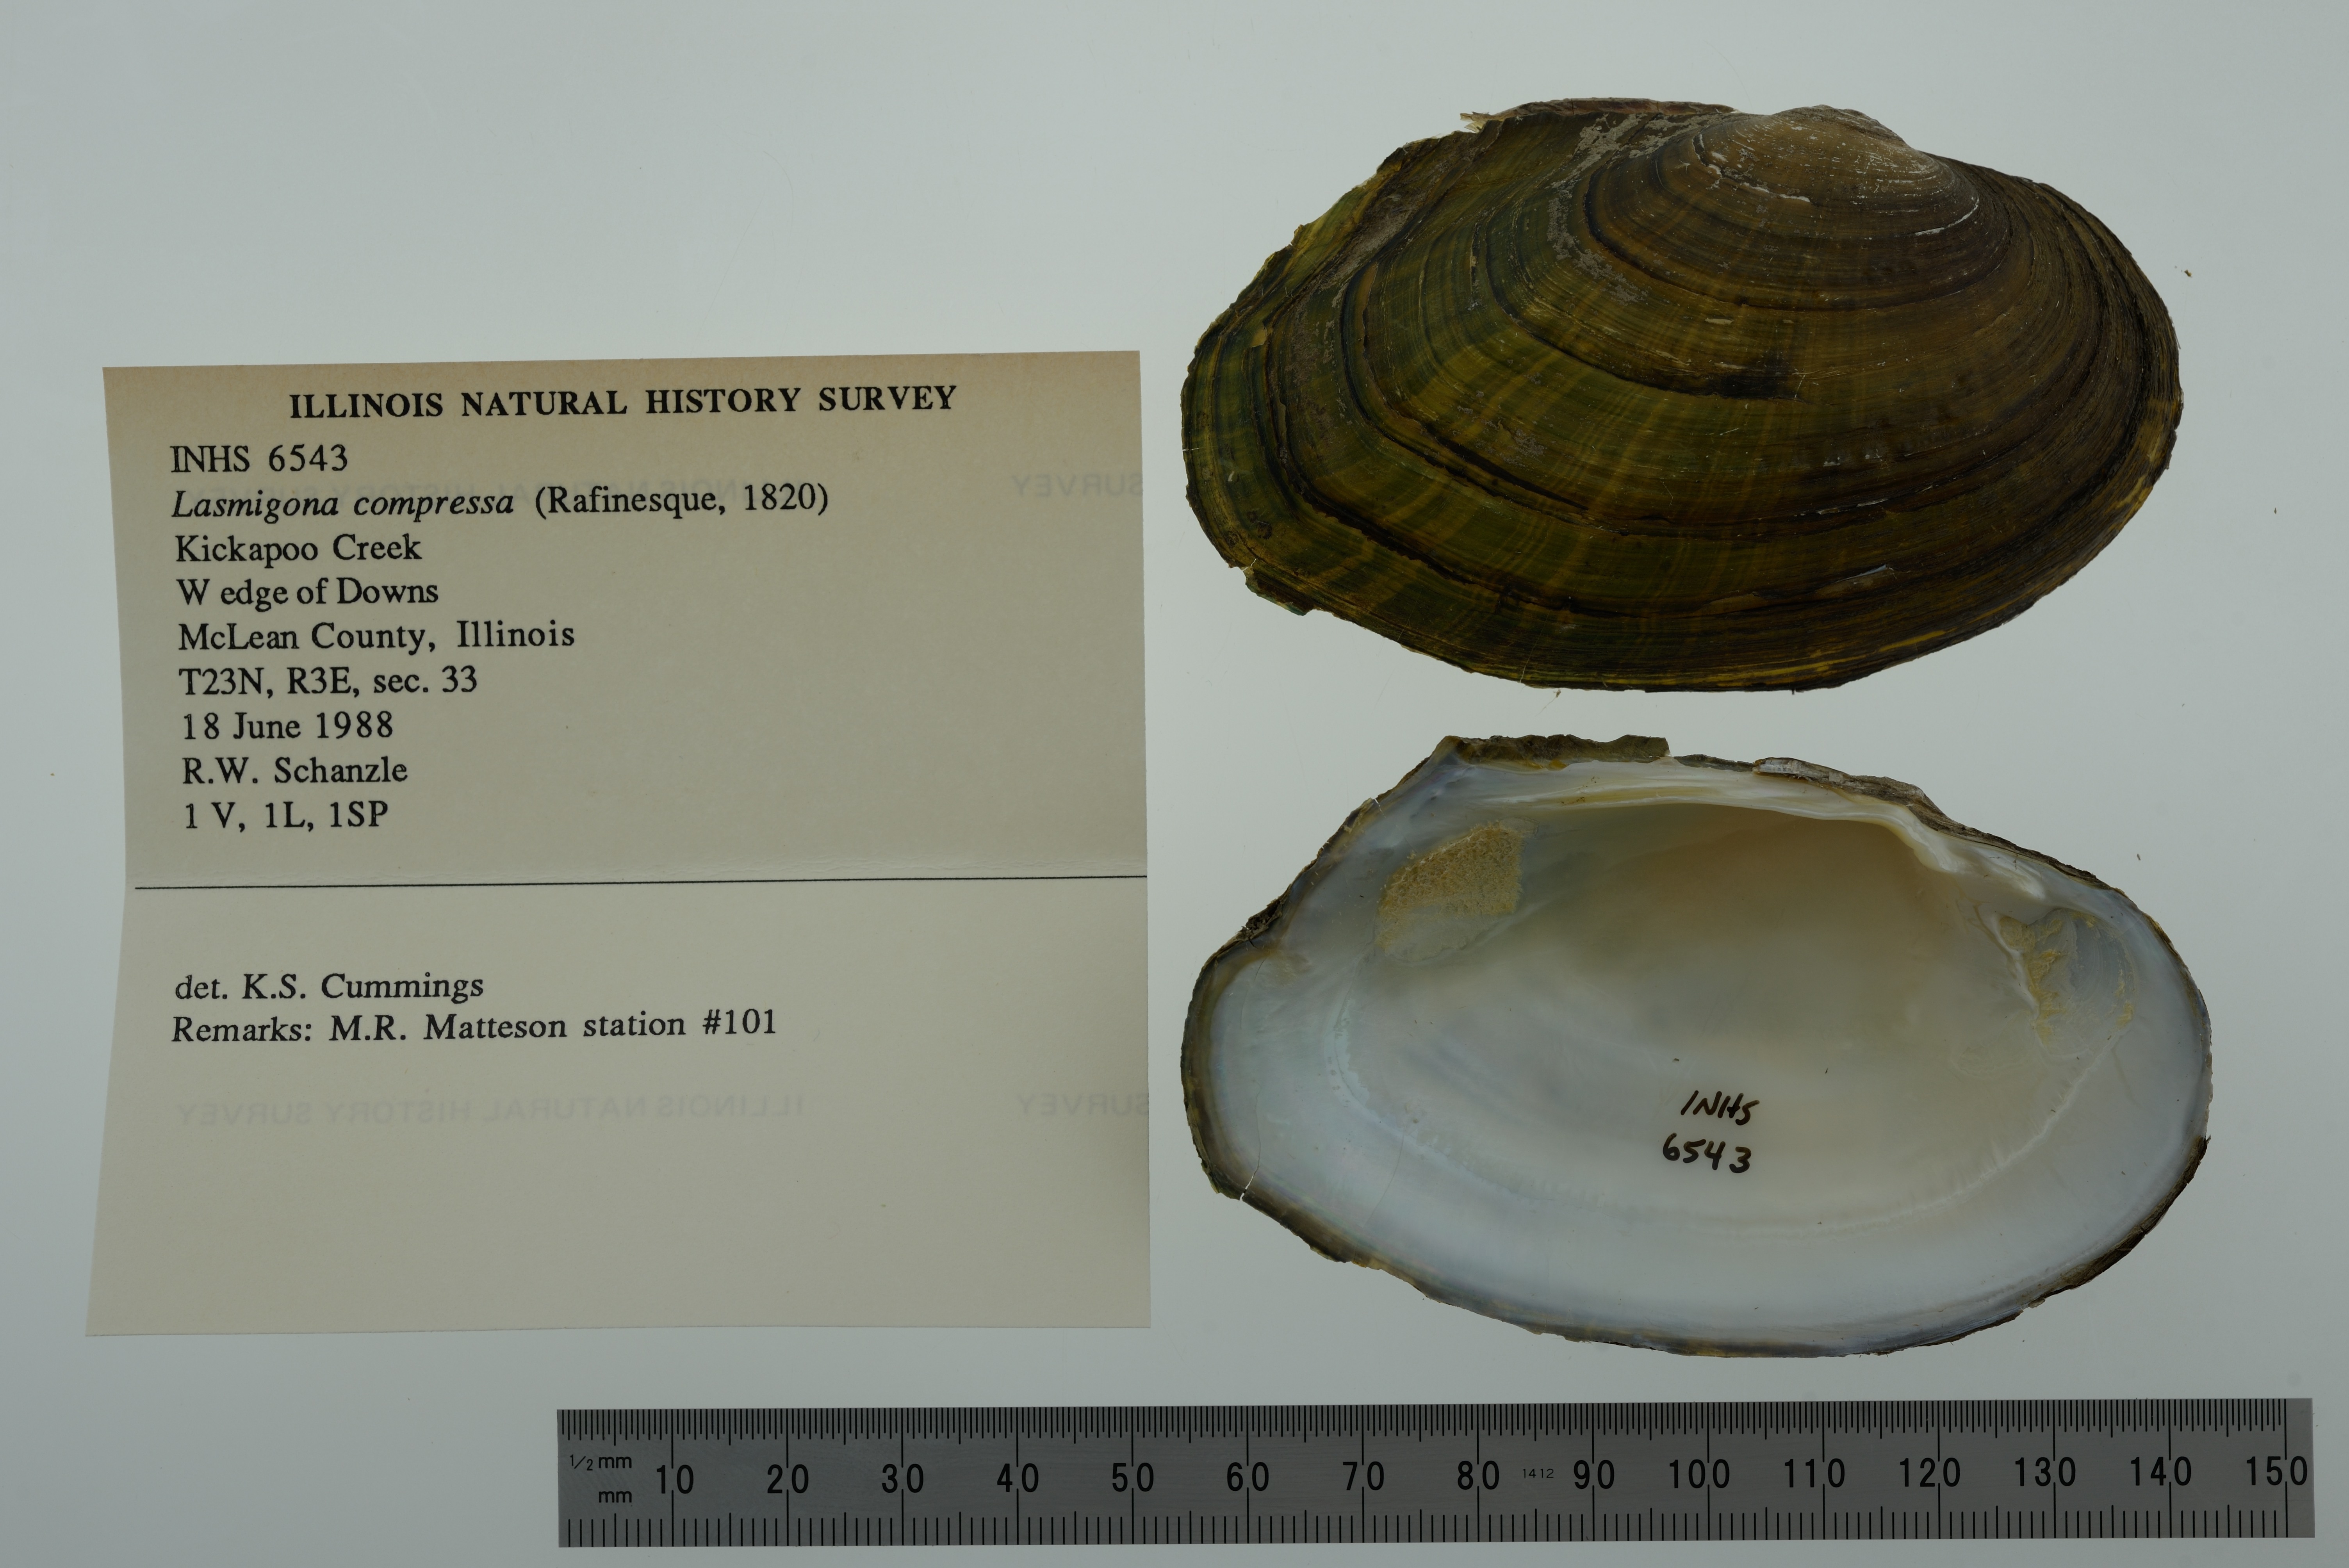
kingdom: Animalia
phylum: Mollusca
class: Bivalvia
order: Unionida
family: Unionidae
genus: Lasmigona
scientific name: Lasmigona compressa
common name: Creek heelsplitter
